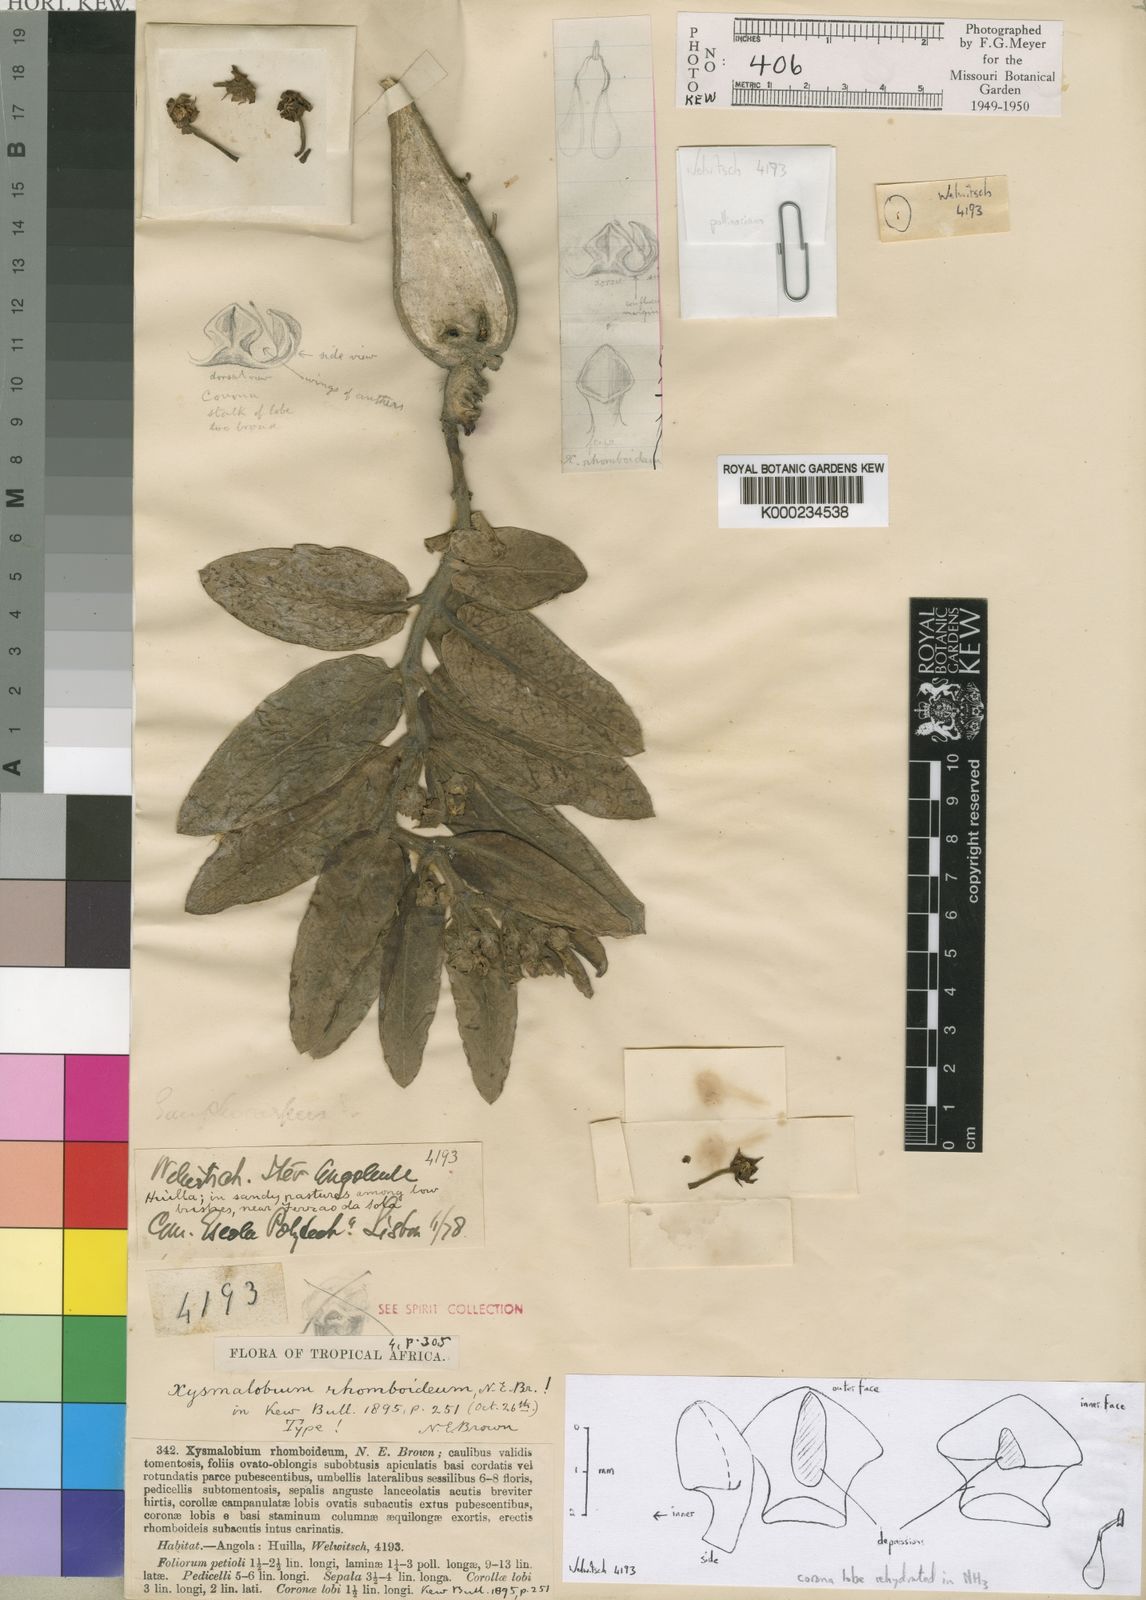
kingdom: Plantae
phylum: Tracheophyta
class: Magnoliopsida
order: Gentianales
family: Apocynaceae
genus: Xysmalobium
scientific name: Xysmalobium rhomboideum
